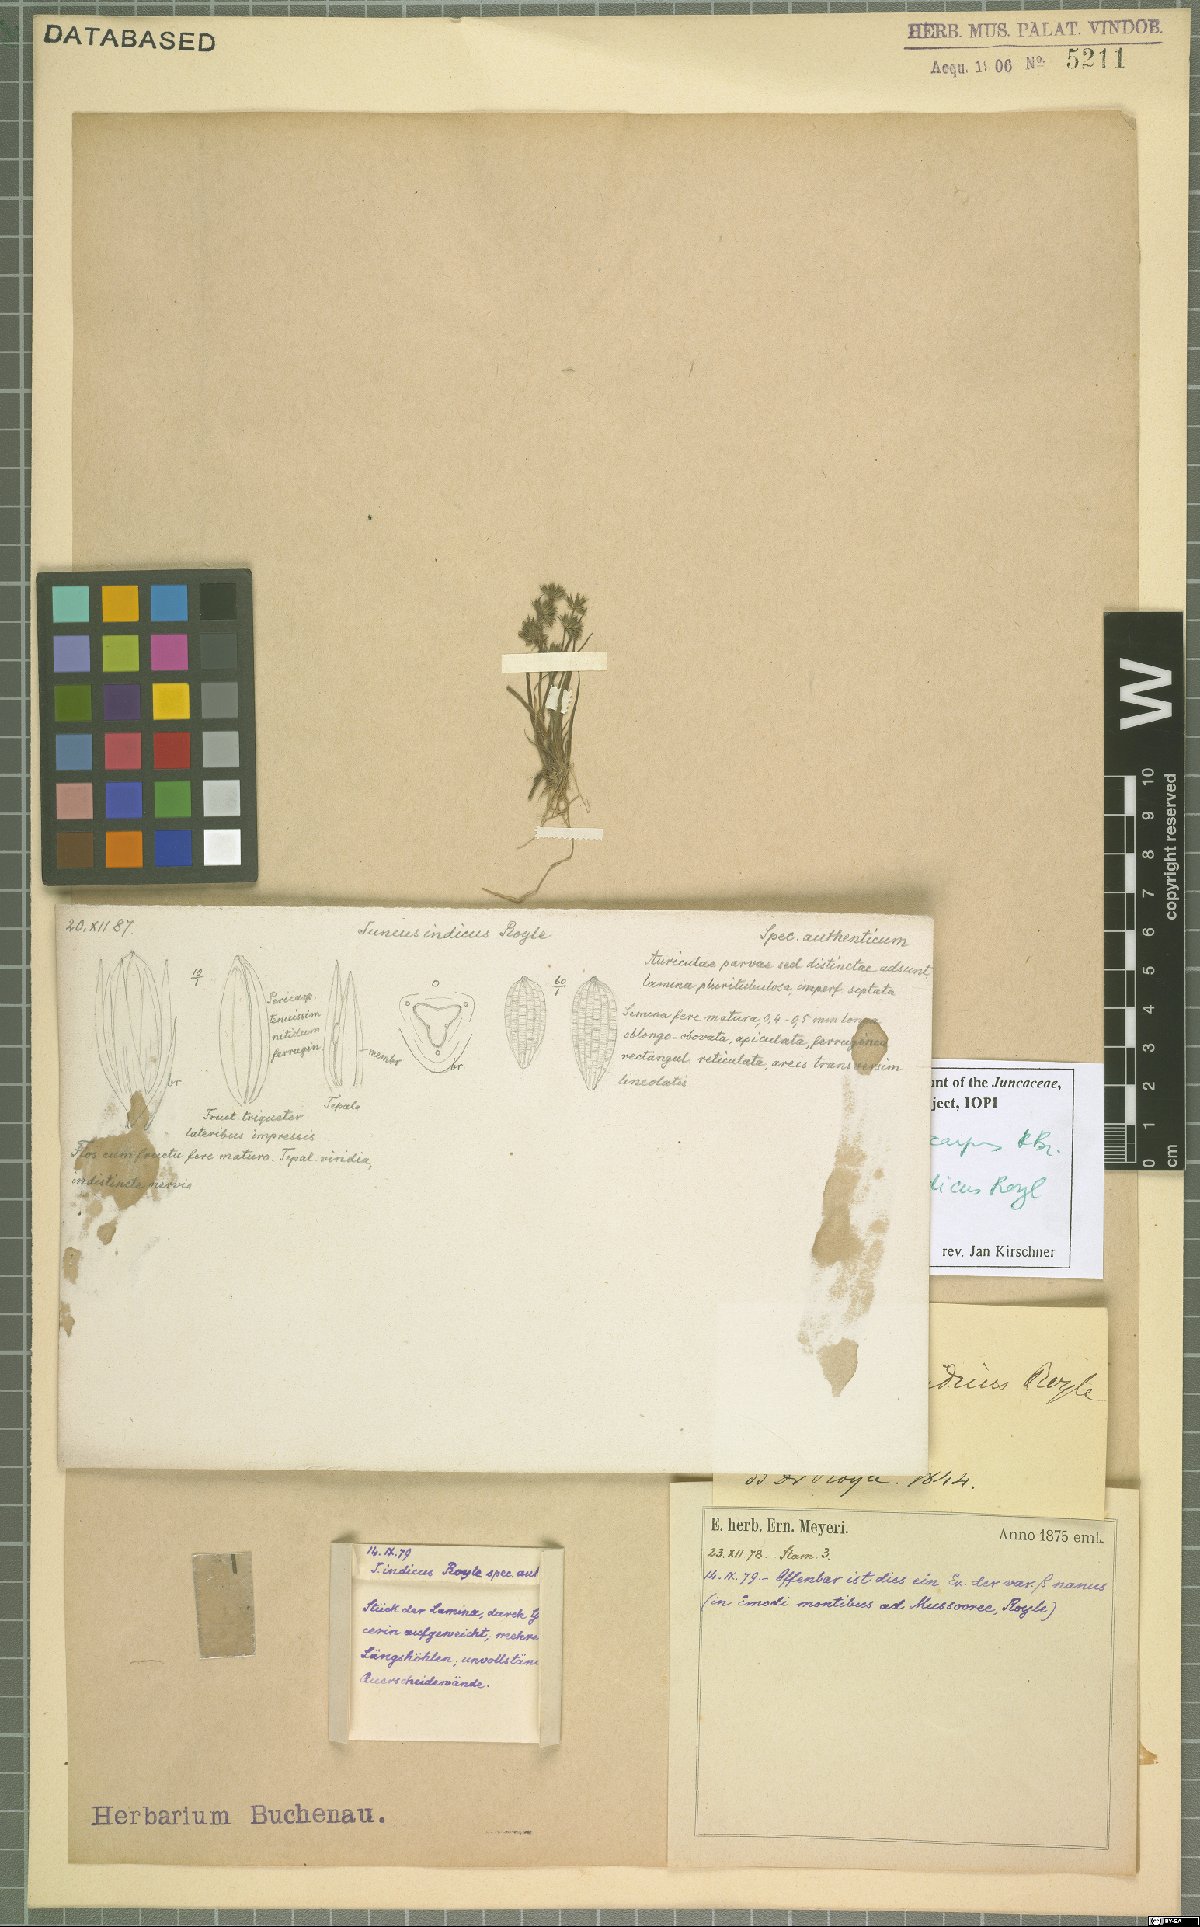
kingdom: Plantae
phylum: Tracheophyta
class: Liliopsida
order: Poales
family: Juncaceae
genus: Juncus
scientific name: Juncus prismatocarpus
